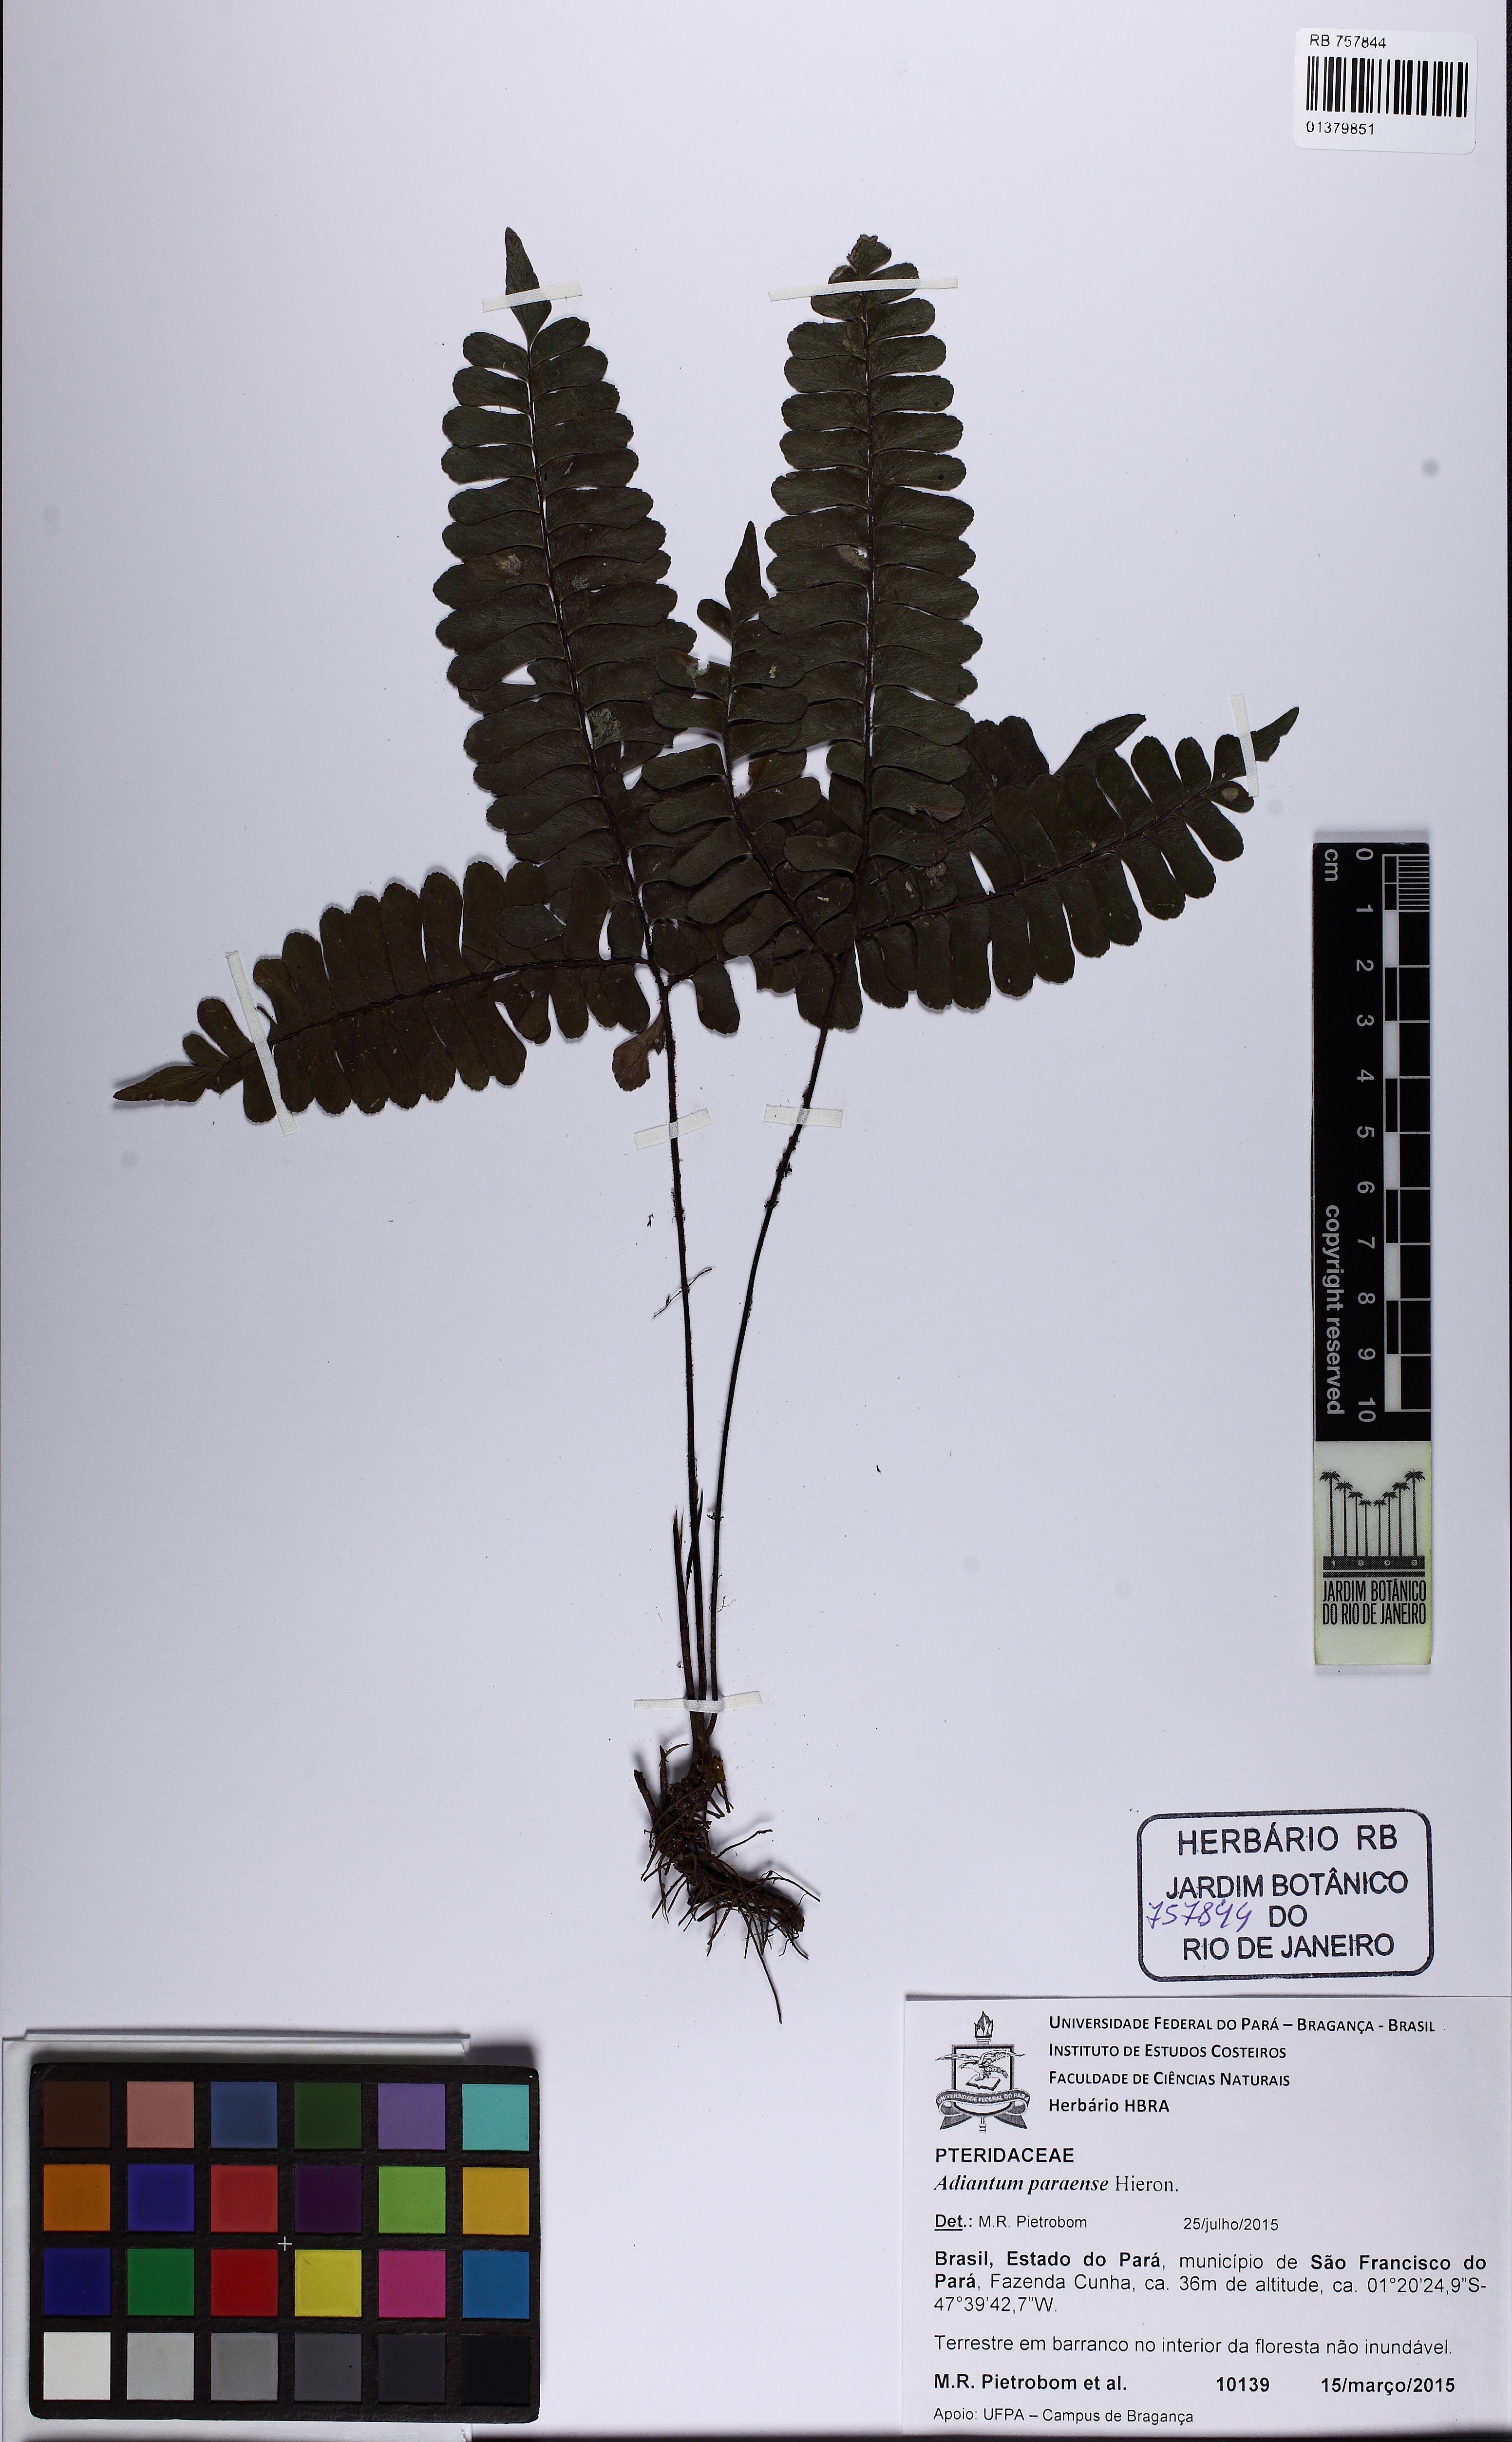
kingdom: Plantae
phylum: Tracheophyta
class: Polypodiopsida
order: Polypodiales
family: Pteridaceae
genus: Adiantum
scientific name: Adiantum paraense
